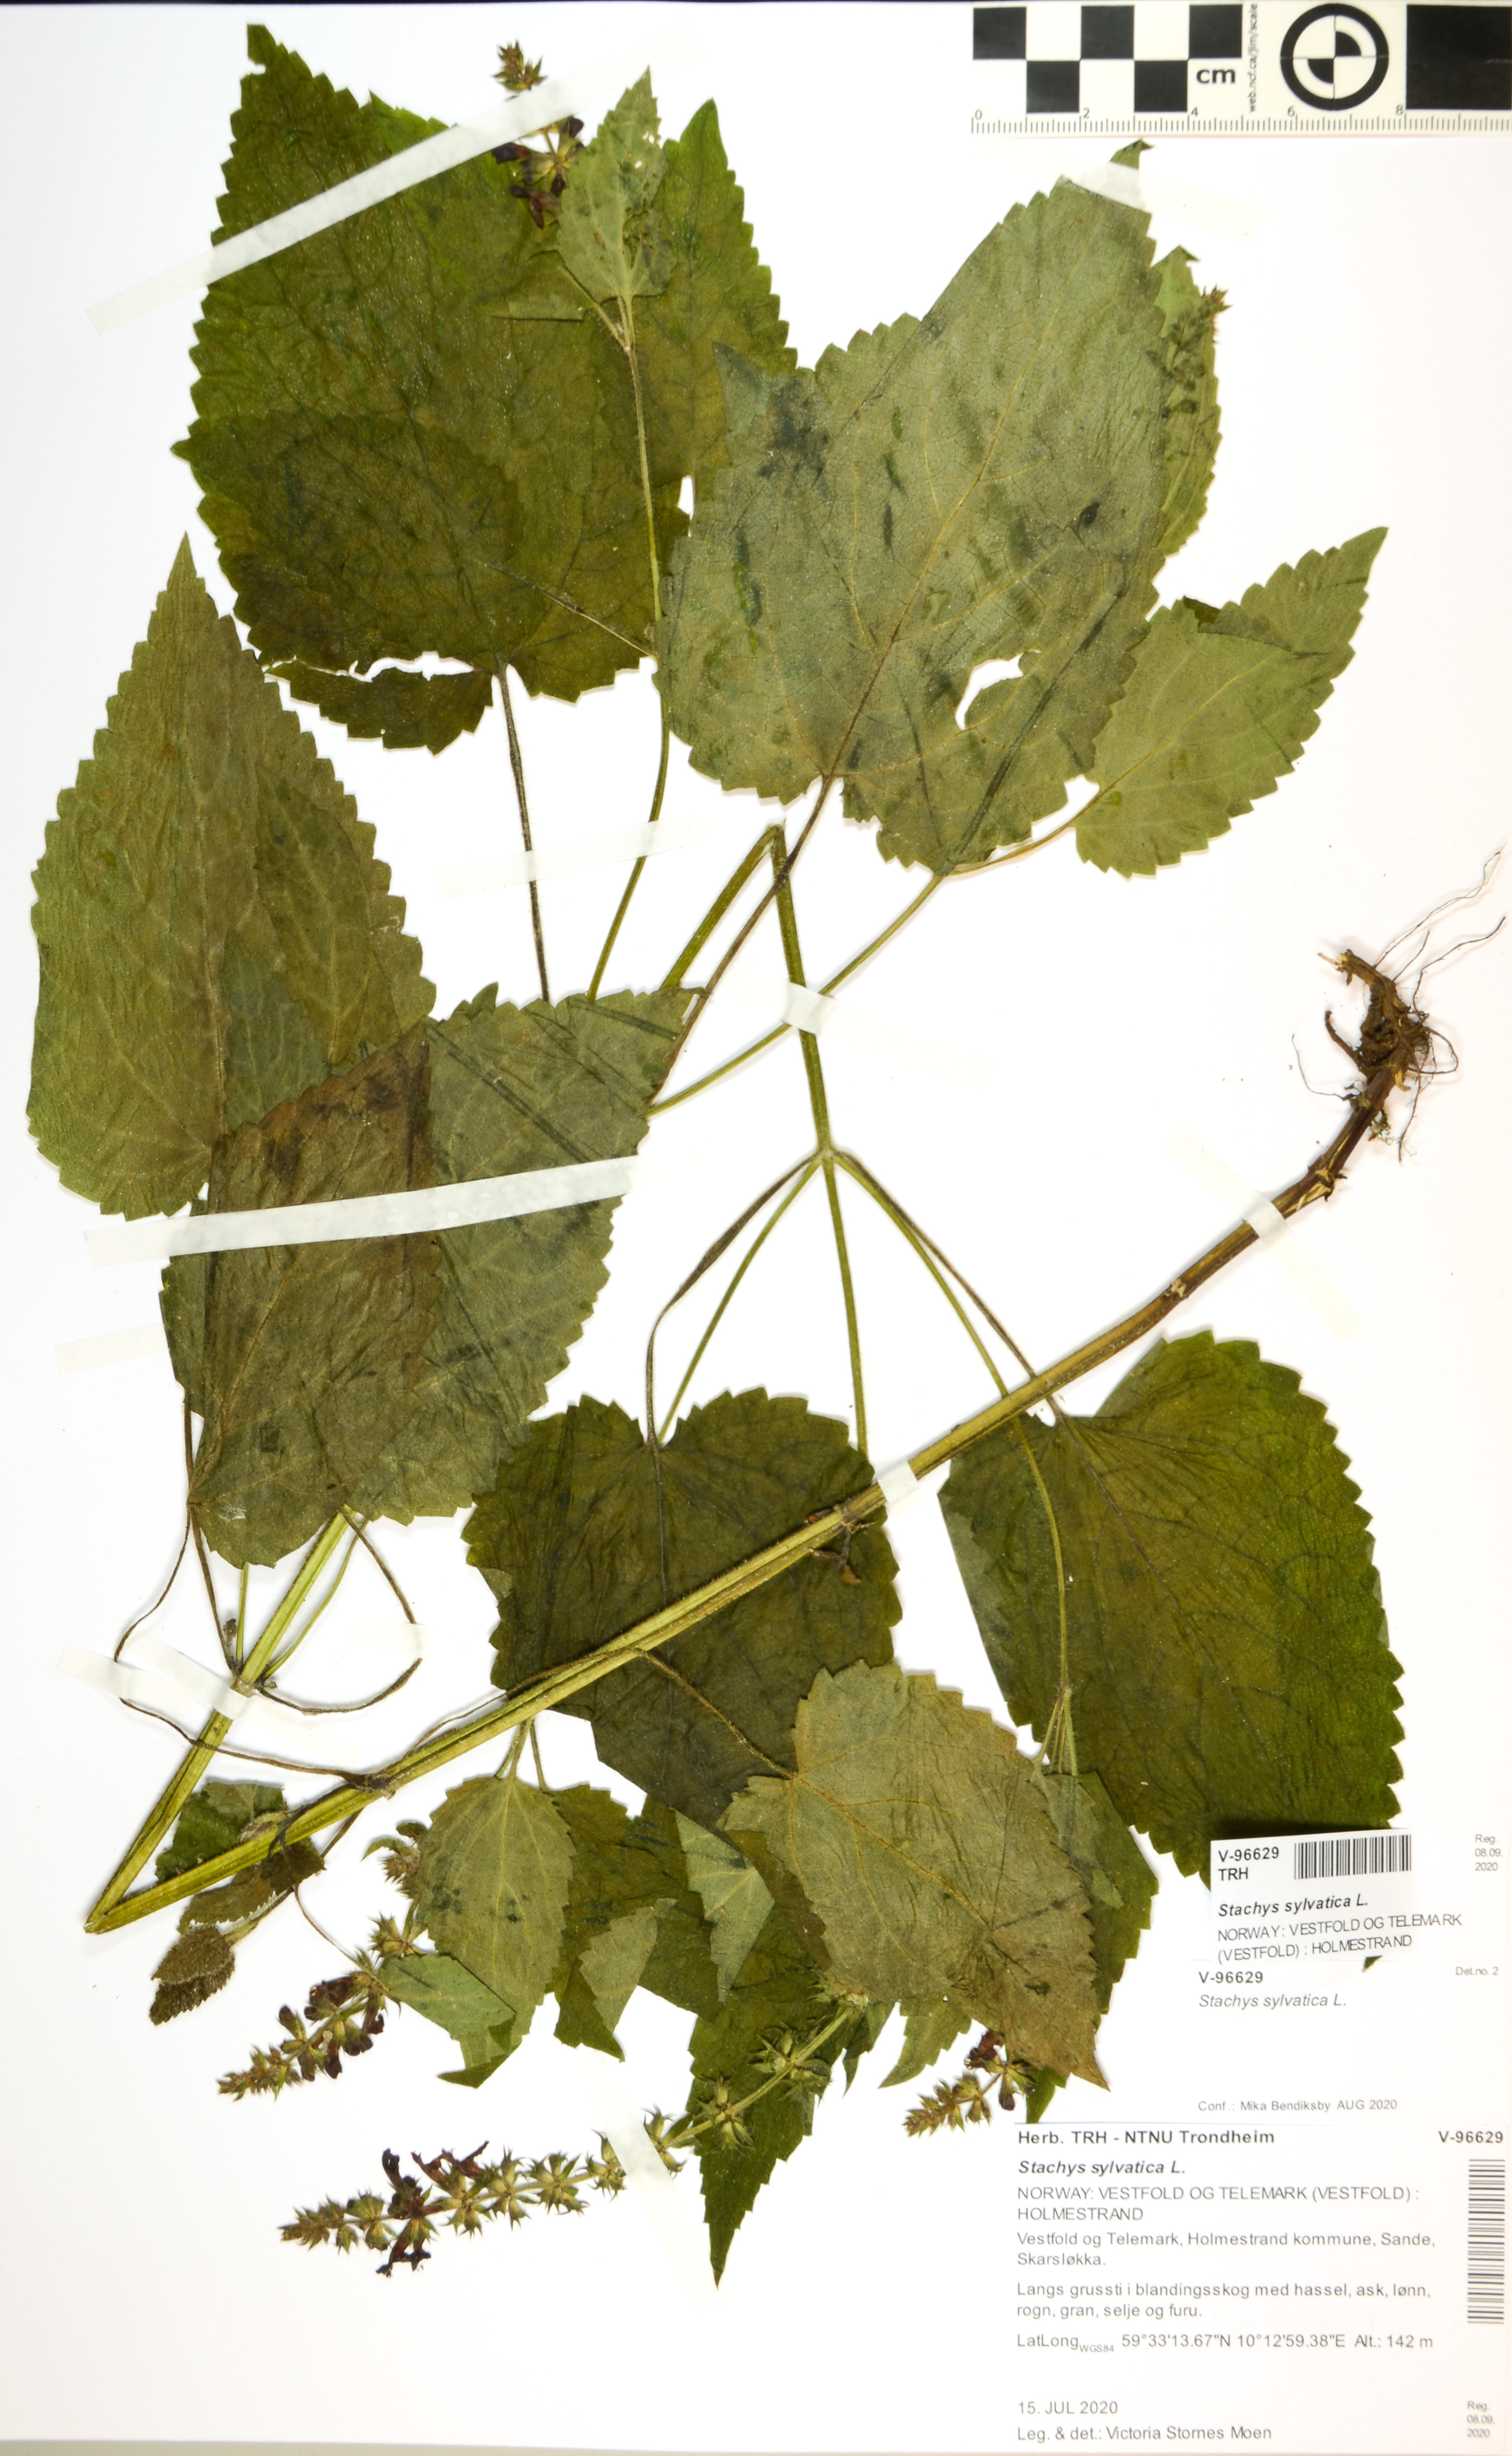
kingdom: Plantae
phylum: Tracheophyta
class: Magnoliopsida
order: Lamiales
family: Lamiaceae
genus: Stachys
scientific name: Stachys sylvatica
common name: Hedge woundwort
